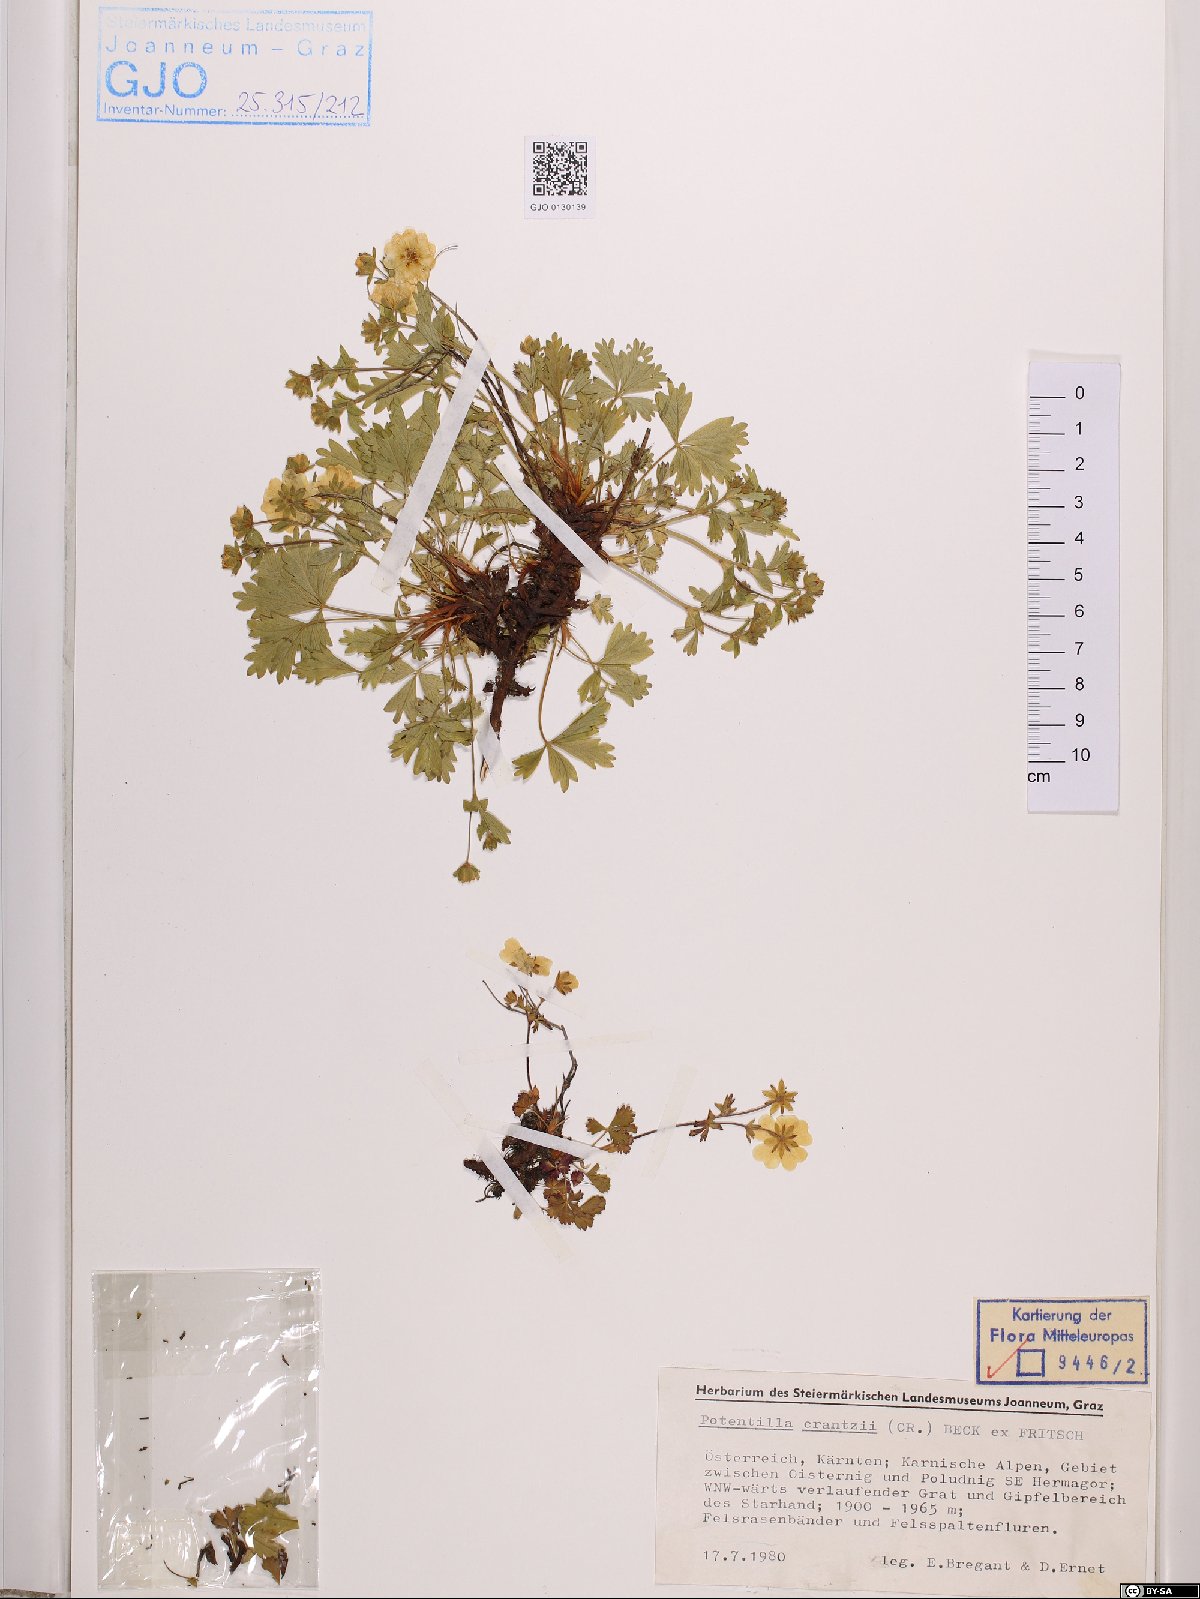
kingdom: Plantae
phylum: Tracheophyta
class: Magnoliopsida
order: Rosales
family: Rosaceae
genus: Potentilla
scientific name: Potentilla crantzii
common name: Alpine cinquefoil
